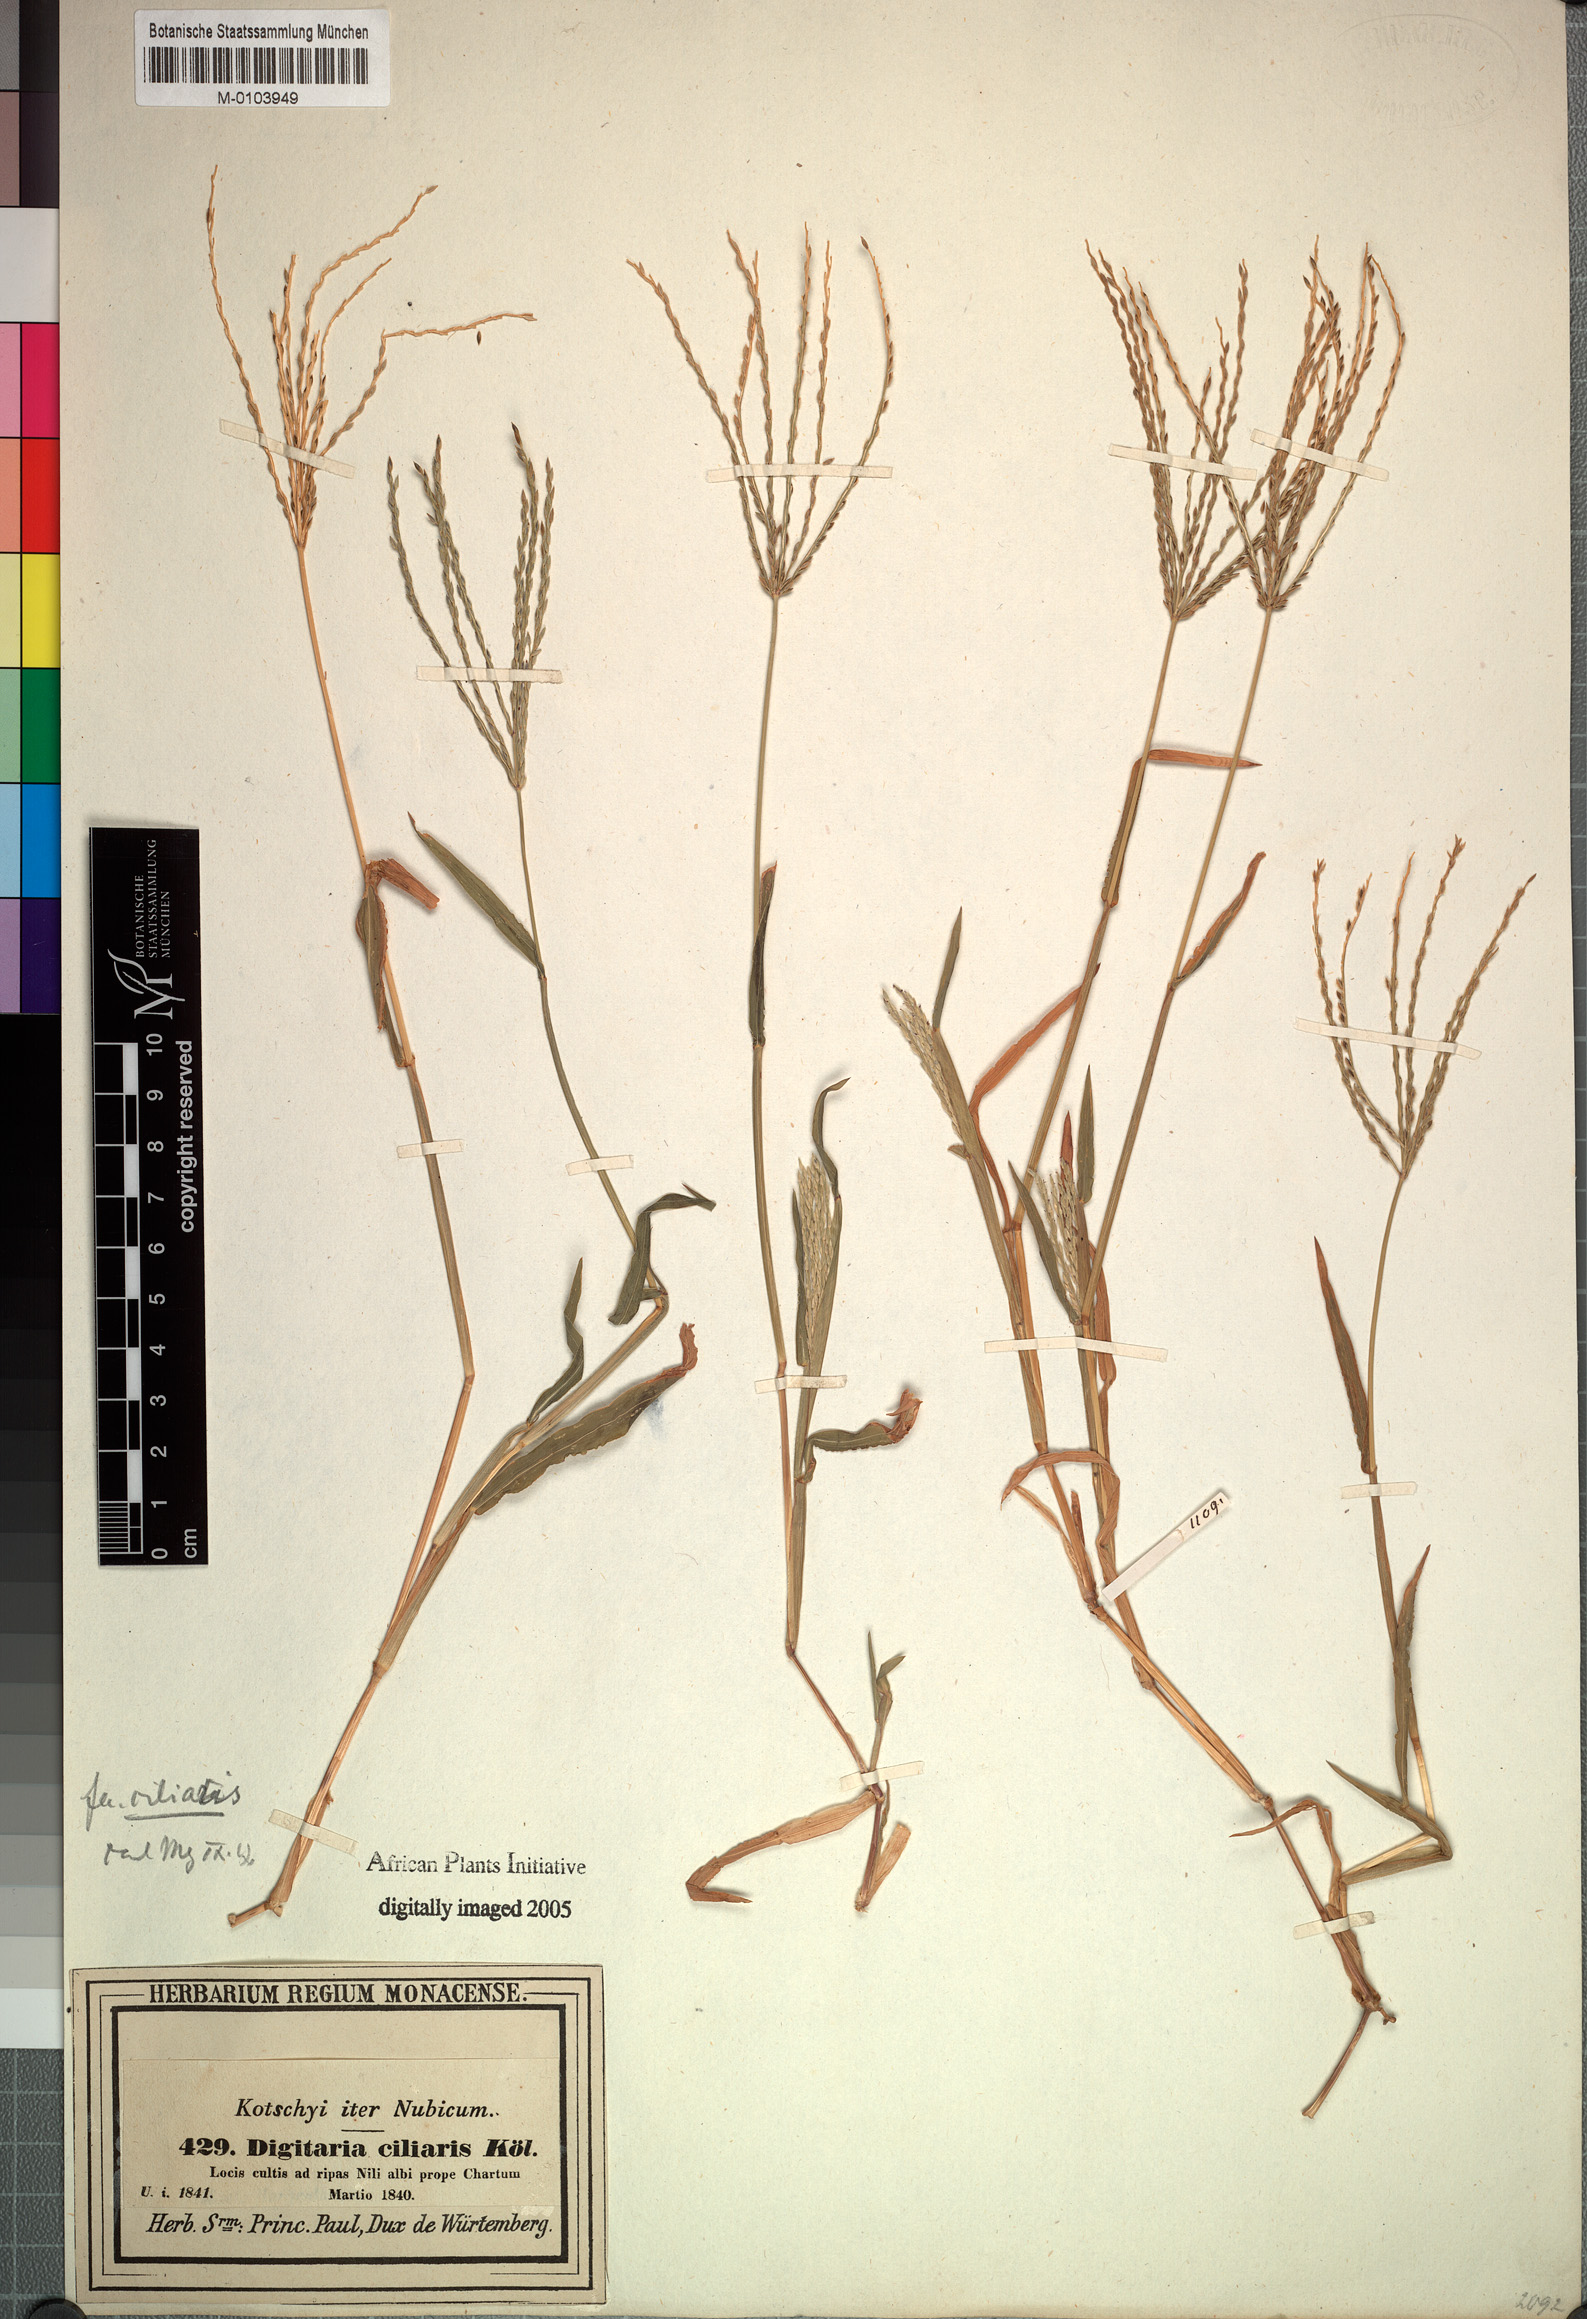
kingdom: Plantae
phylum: Tracheophyta
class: Liliopsida
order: Poales
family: Poaceae
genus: Digitaria
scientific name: Digitaria ciliaris
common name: Tropical finger-grass
